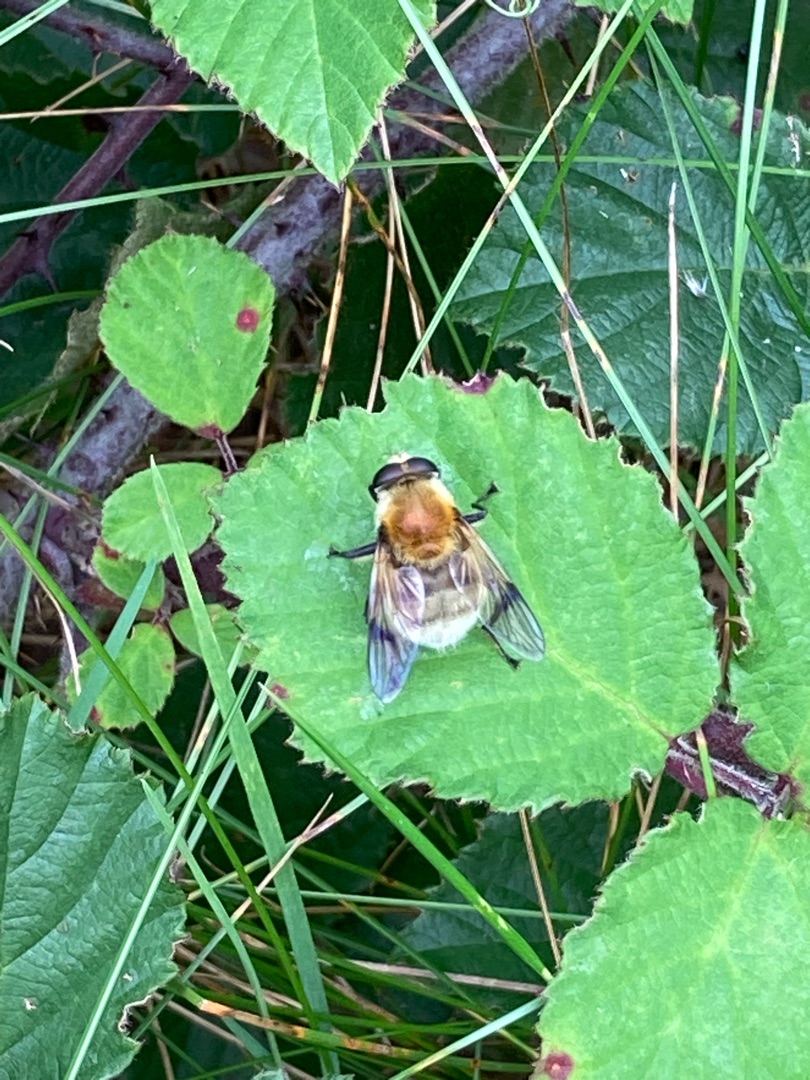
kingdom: Animalia
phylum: Arthropoda
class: Insecta
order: Diptera
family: Syrphidae
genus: Sericomyia
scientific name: Sericomyia superbiens
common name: Brun bjørnesvirreflue
